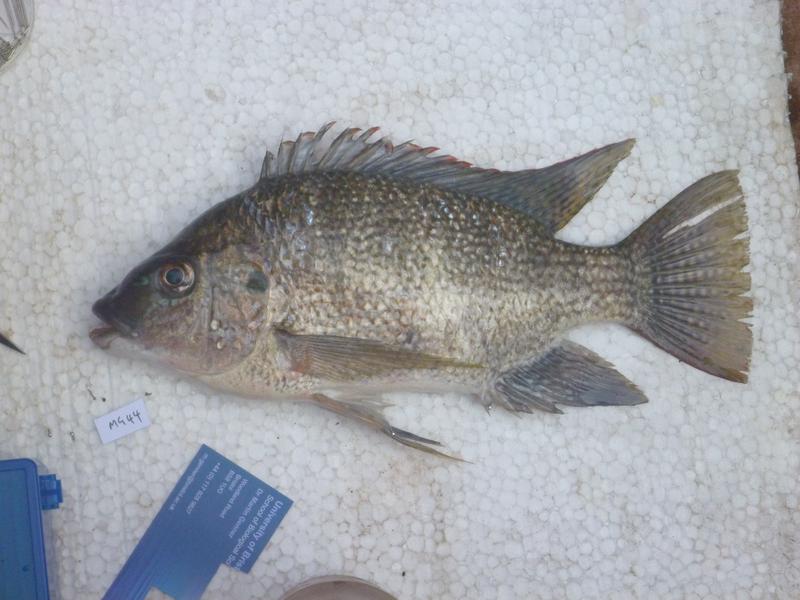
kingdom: Animalia
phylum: Chordata
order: Perciformes
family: Cichlidae
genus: Oreochromis
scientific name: Oreochromis tanganicae
